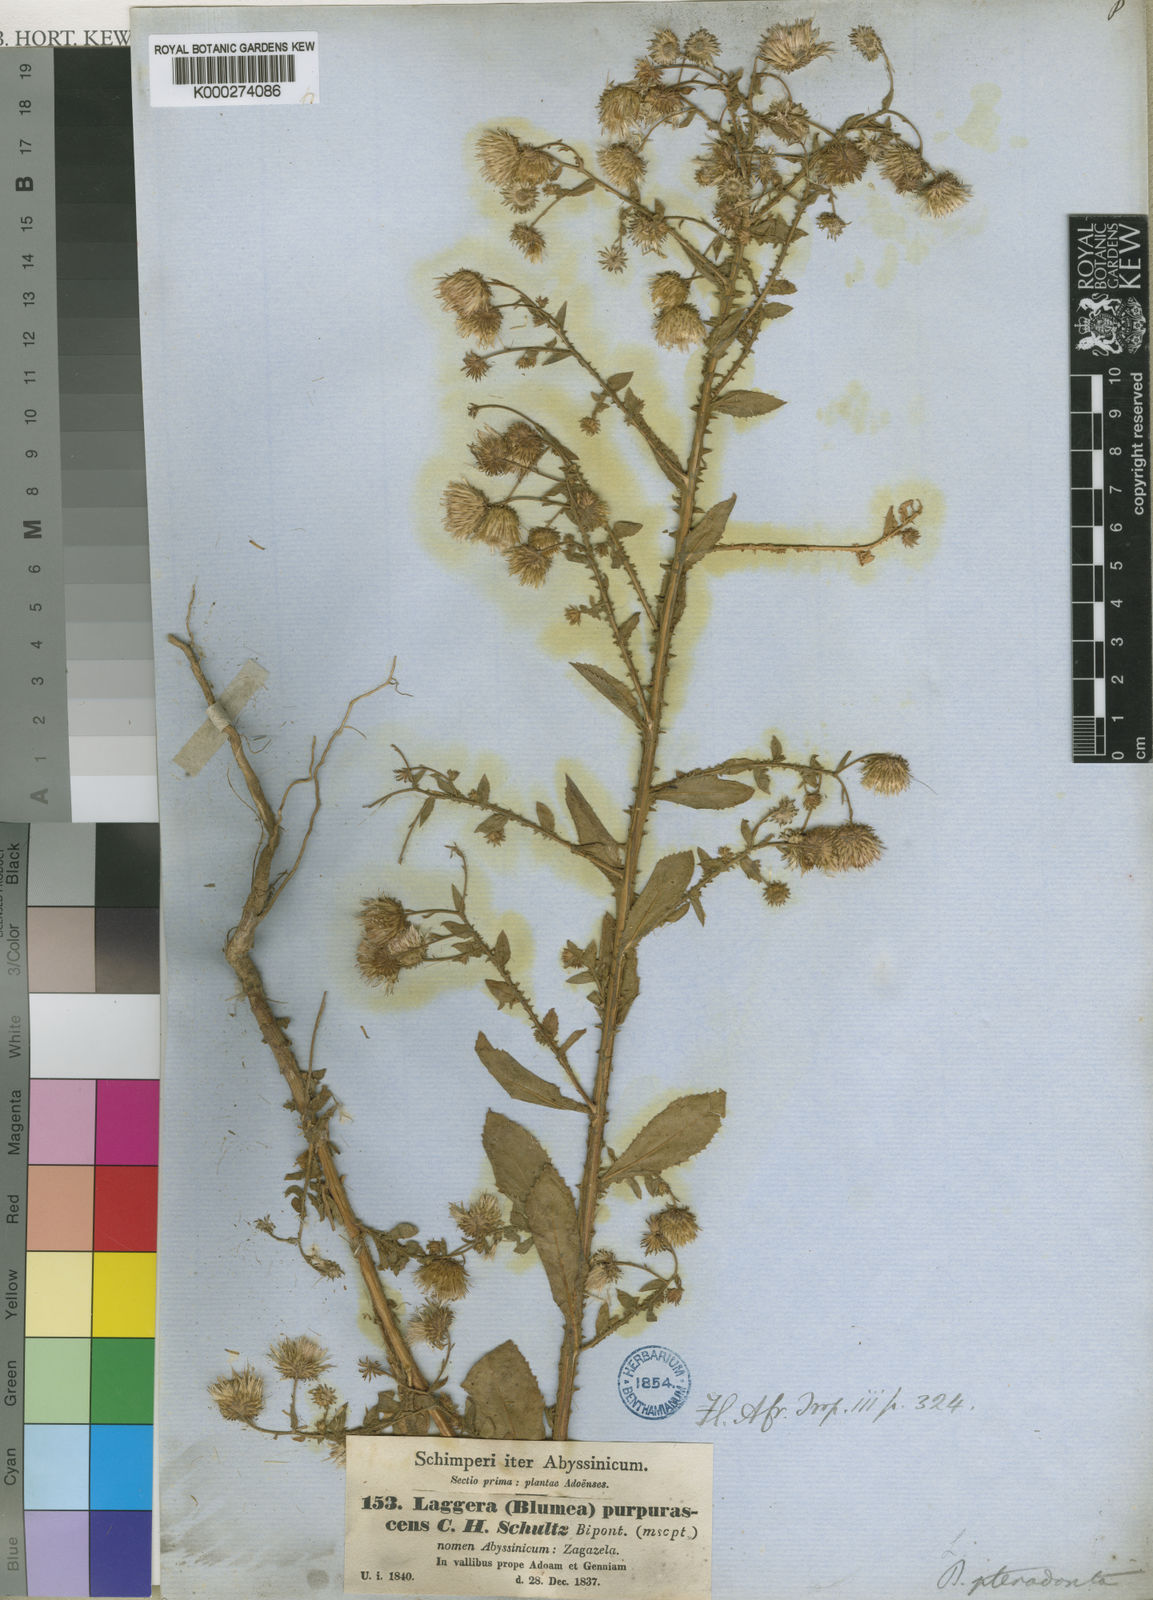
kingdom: Plantae
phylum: Tracheophyta
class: Magnoliopsida
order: Asterales
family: Asteraceae
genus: Laggera
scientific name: Laggera crispata
